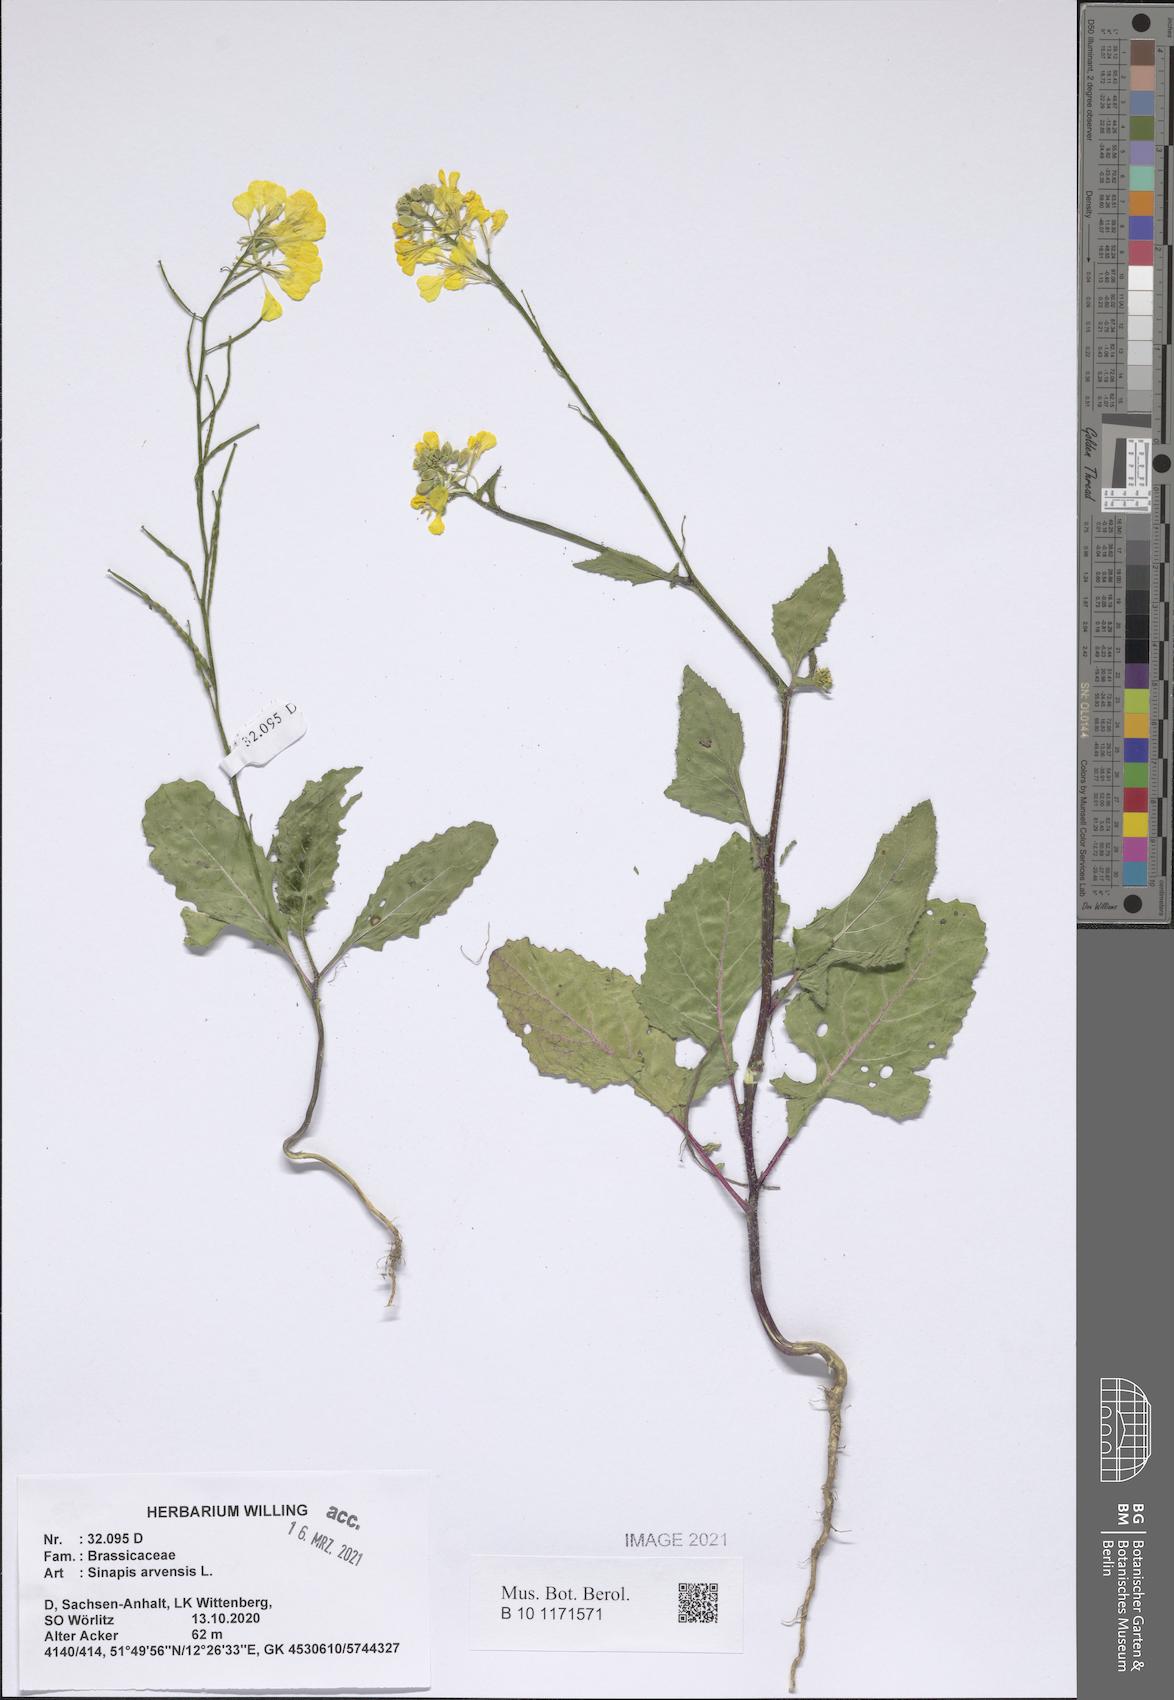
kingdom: Plantae
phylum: Tracheophyta
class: Magnoliopsida
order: Brassicales
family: Brassicaceae
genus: Sinapis
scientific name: Sinapis arvensis
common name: Charlock
